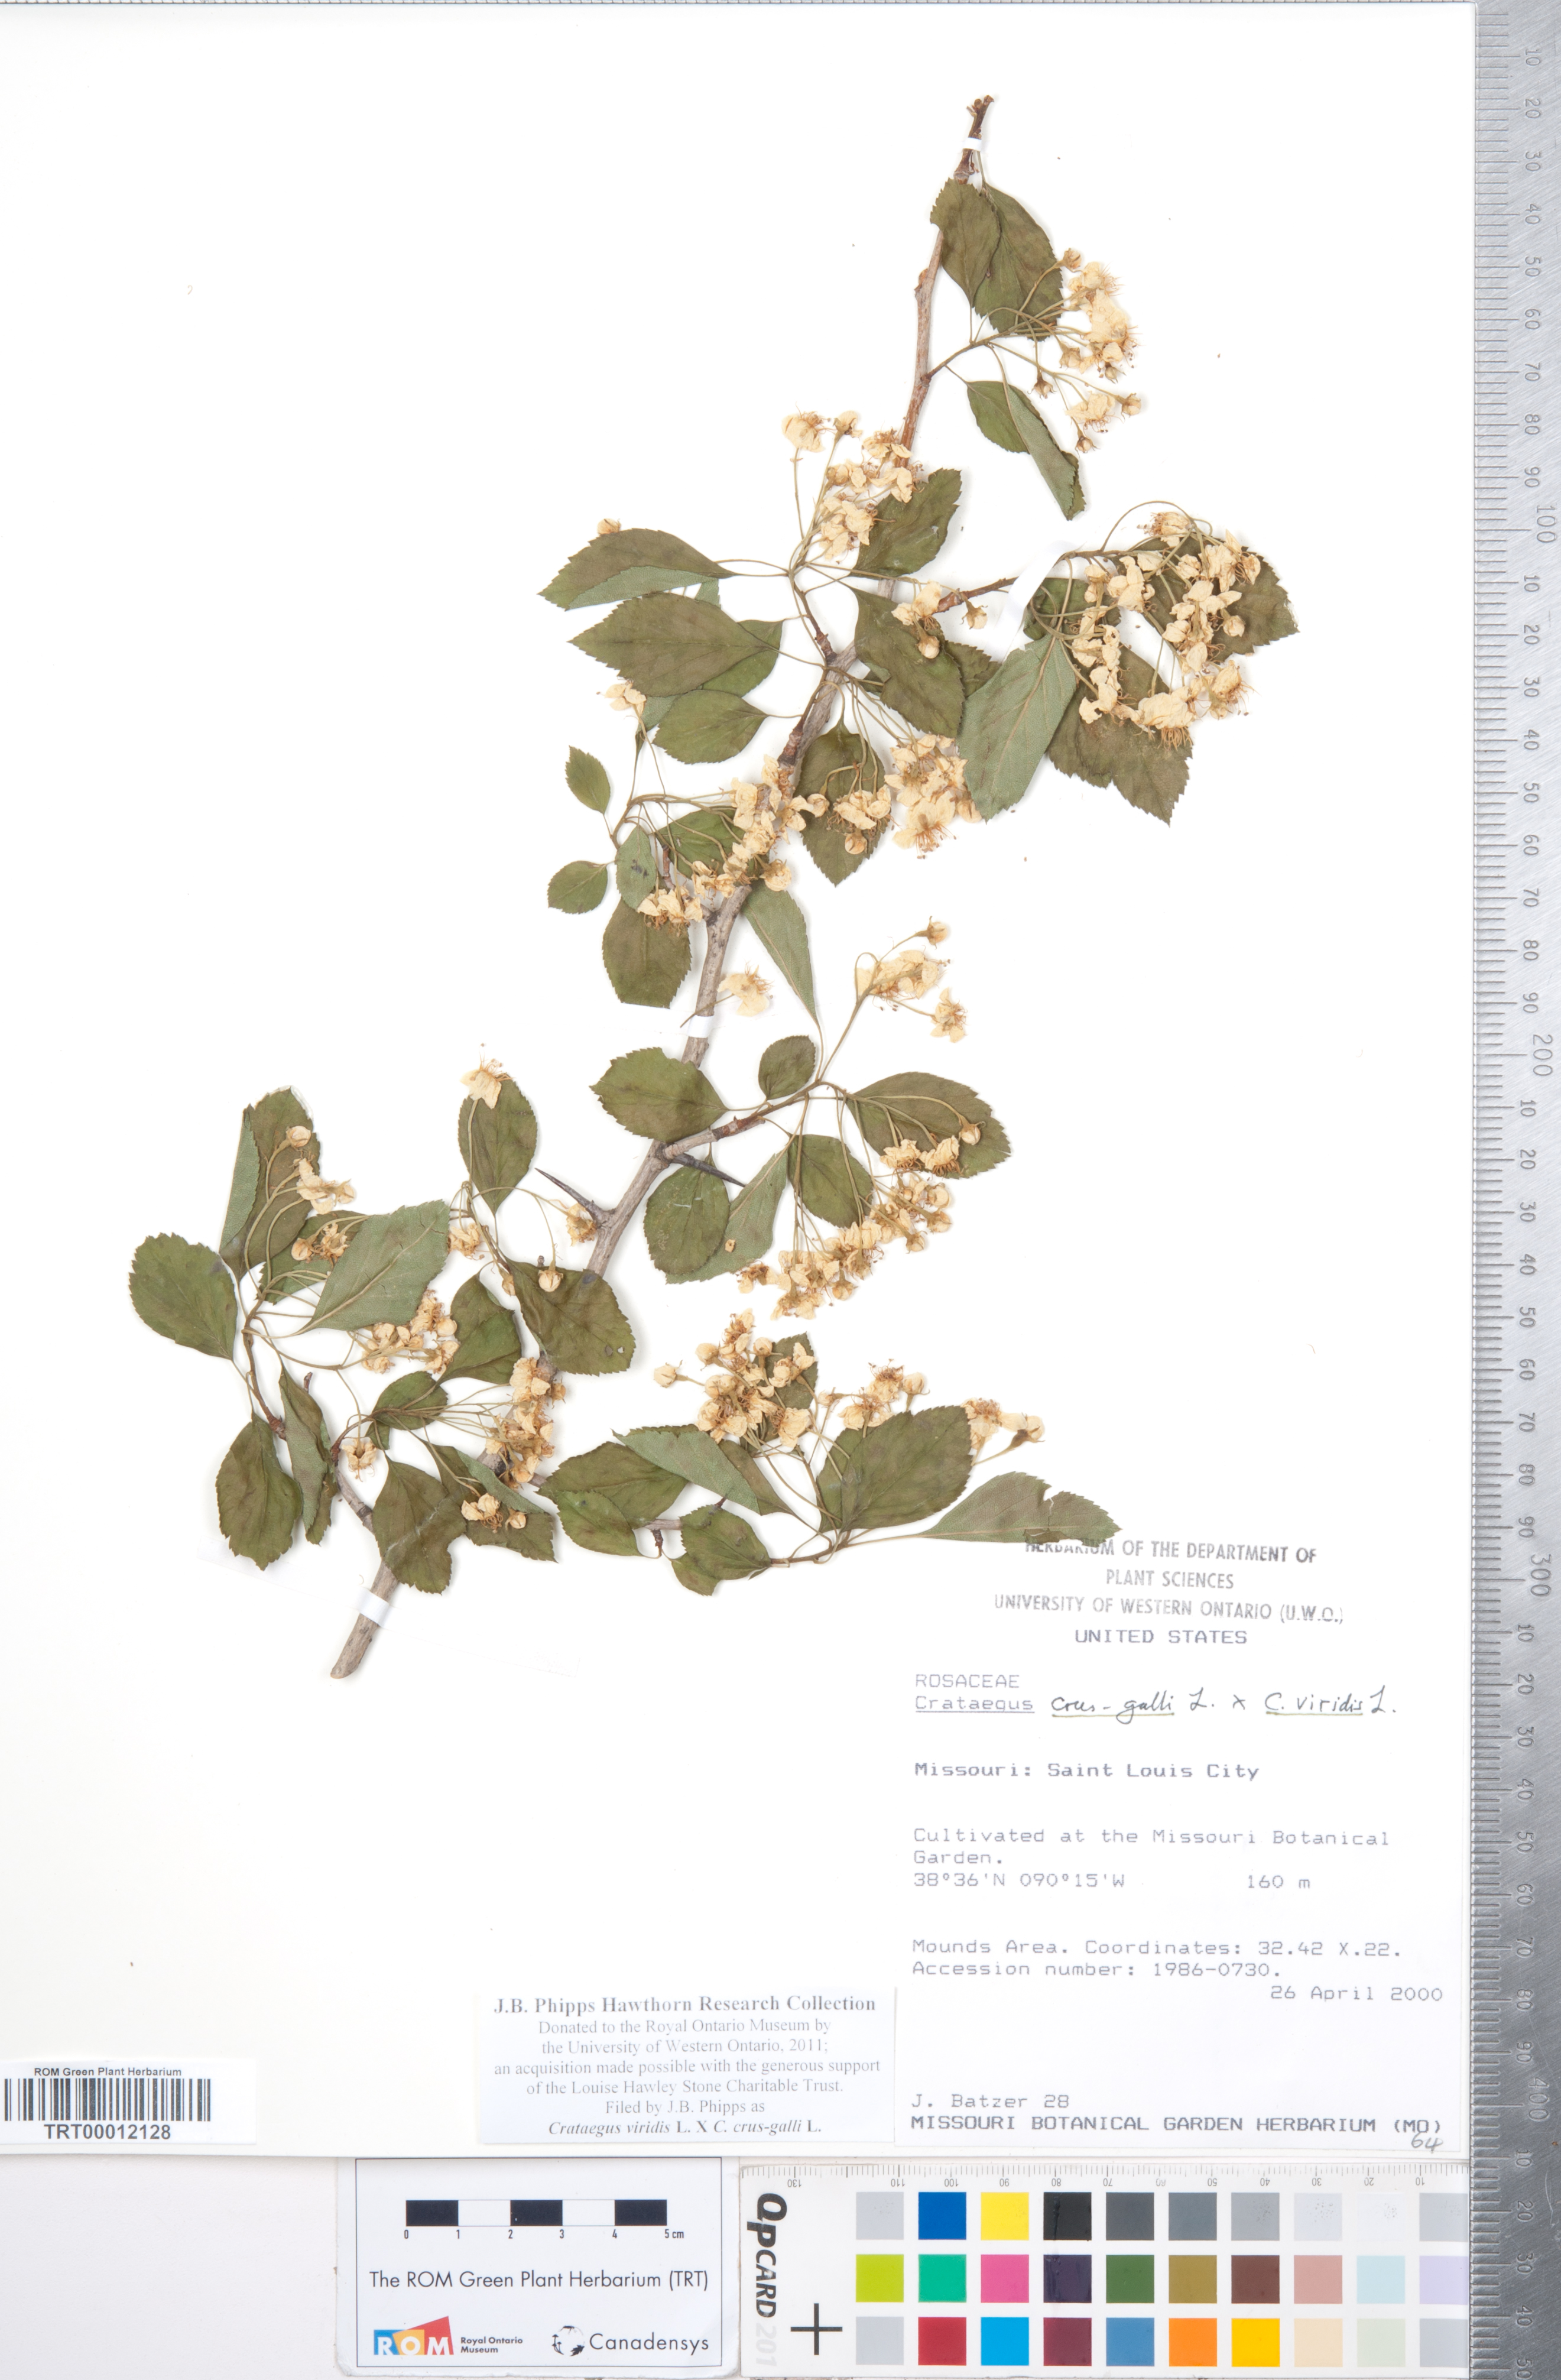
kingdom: Plantae
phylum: Tracheophyta
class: Magnoliopsida
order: Rosales
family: Rosaceae
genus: Crataegus
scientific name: Crataegus
